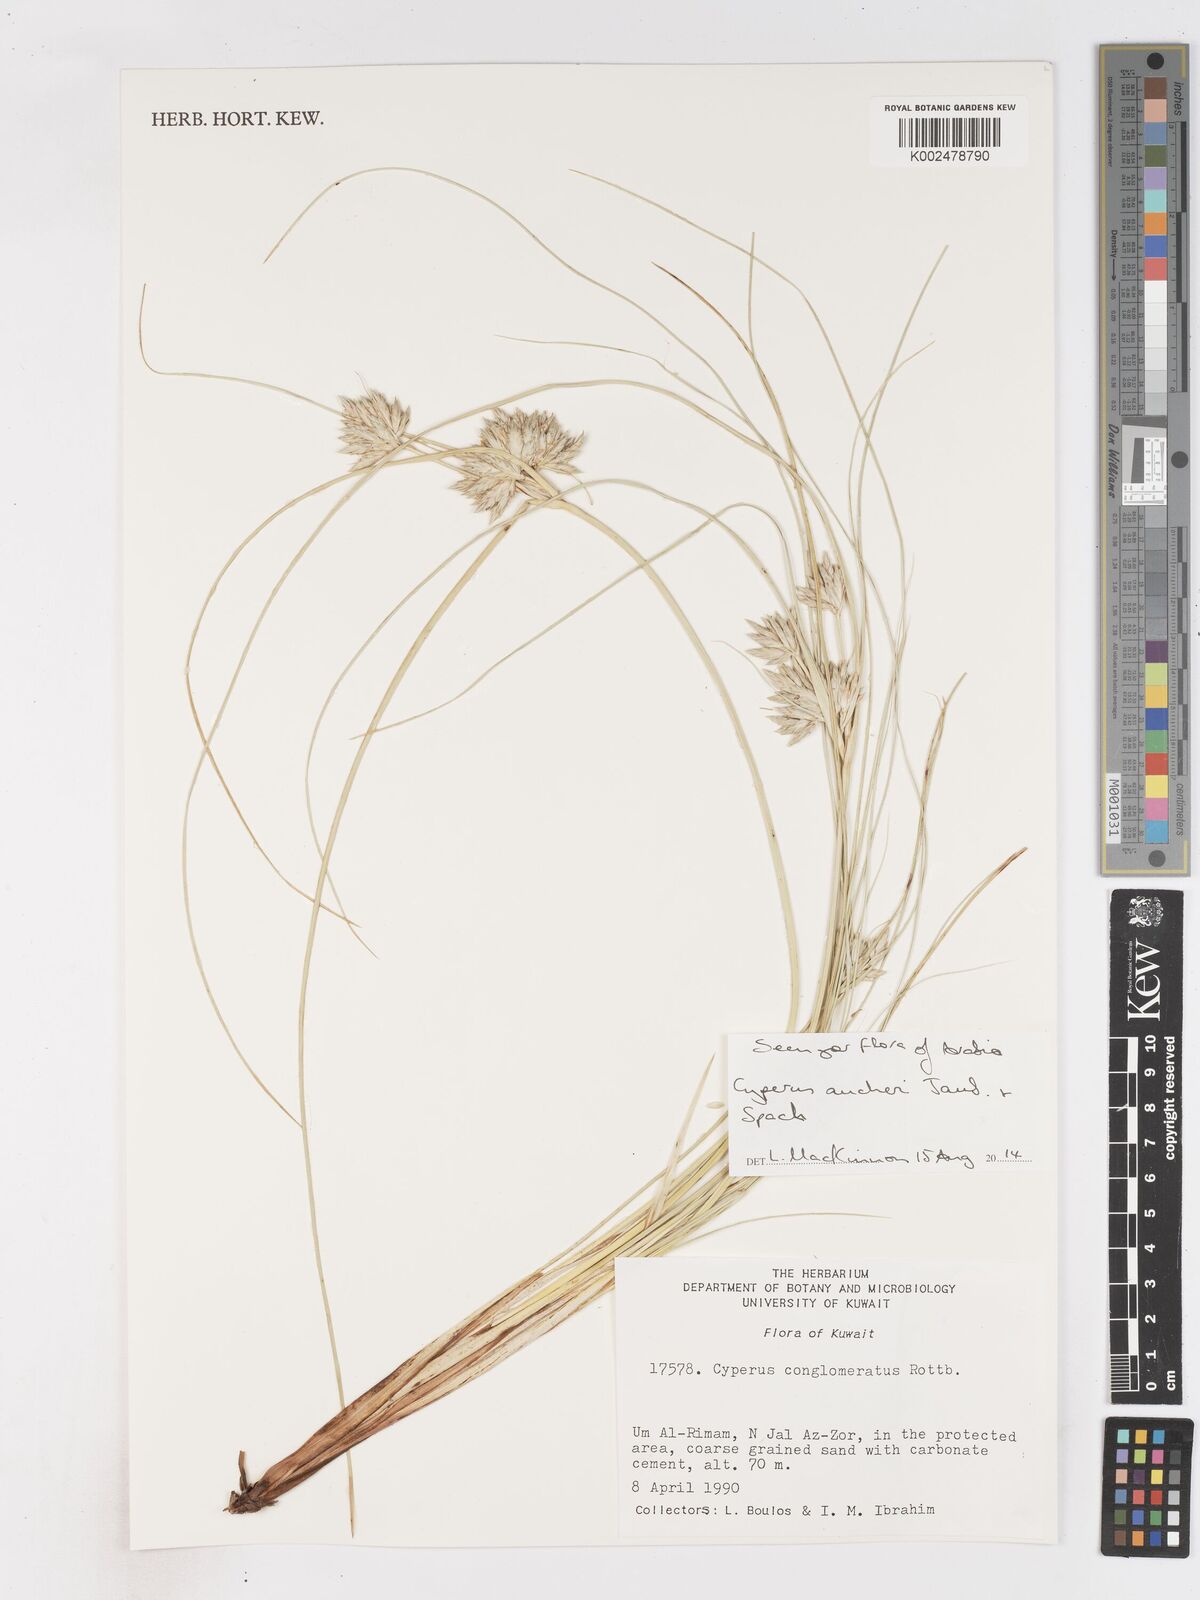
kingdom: Plantae
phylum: Tracheophyta
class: Liliopsida
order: Poales
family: Cyperaceae
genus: Cyperus
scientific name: Cyperus aucheri
